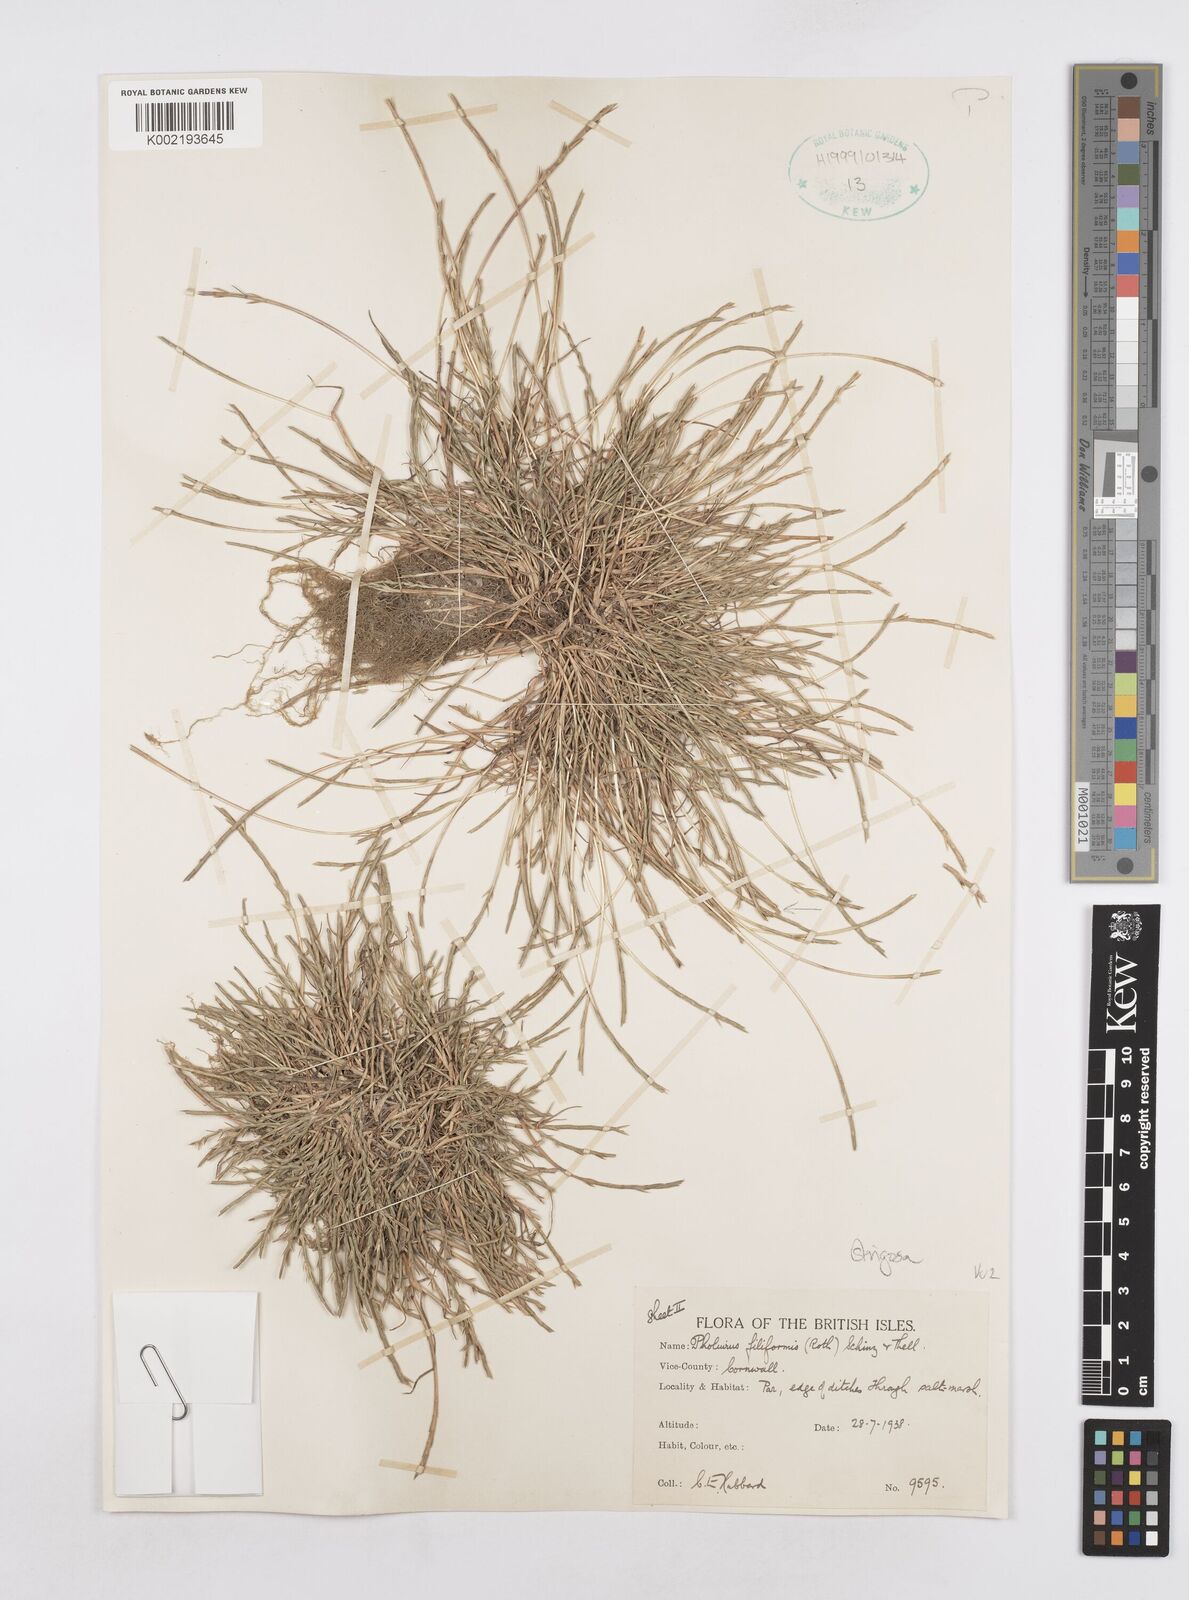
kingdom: Plantae
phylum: Tracheophyta
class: Liliopsida
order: Poales
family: Poaceae
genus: Parapholis
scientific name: Parapholis strigosa
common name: Hard-grass
